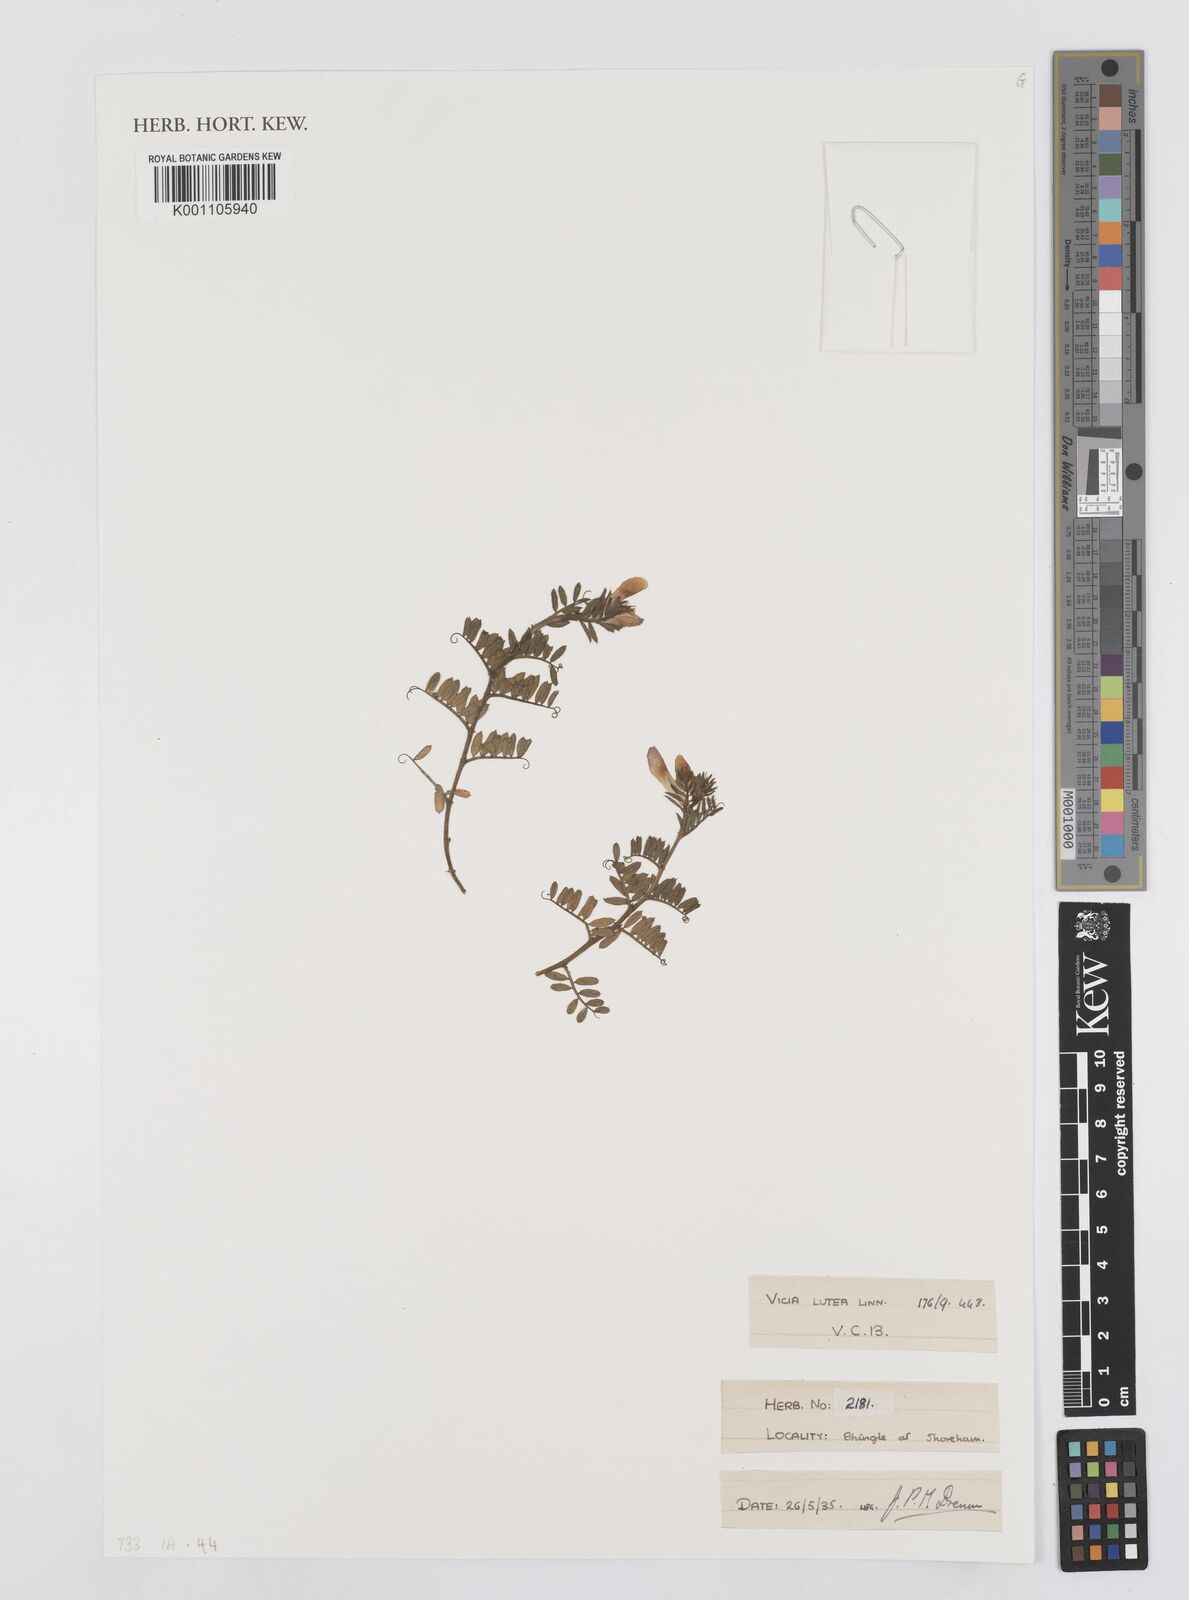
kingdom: Plantae
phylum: Tracheophyta
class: Magnoliopsida
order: Fabales
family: Fabaceae
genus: Vicia
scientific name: Vicia lutea
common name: Smooth yellow vetch
